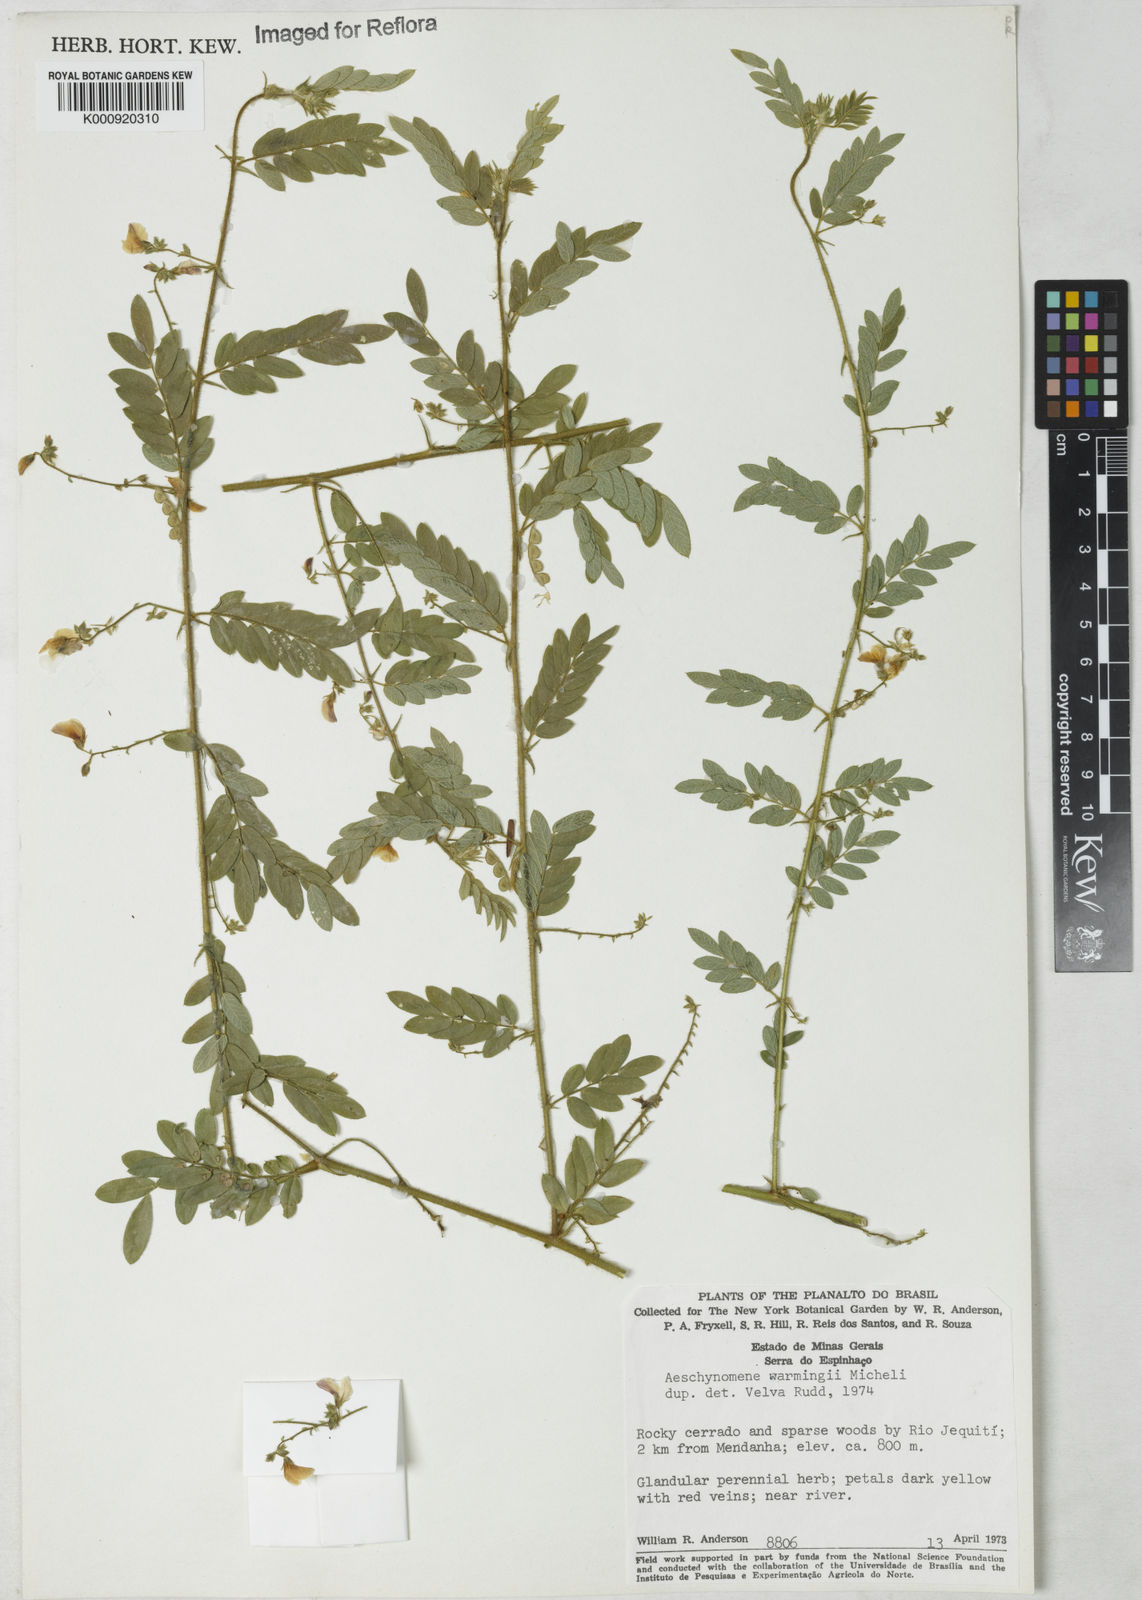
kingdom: Plantae
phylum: Tracheophyta
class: Magnoliopsida
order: Fabales
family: Fabaceae
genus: Ctenodon
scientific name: Ctenodon warmingii
